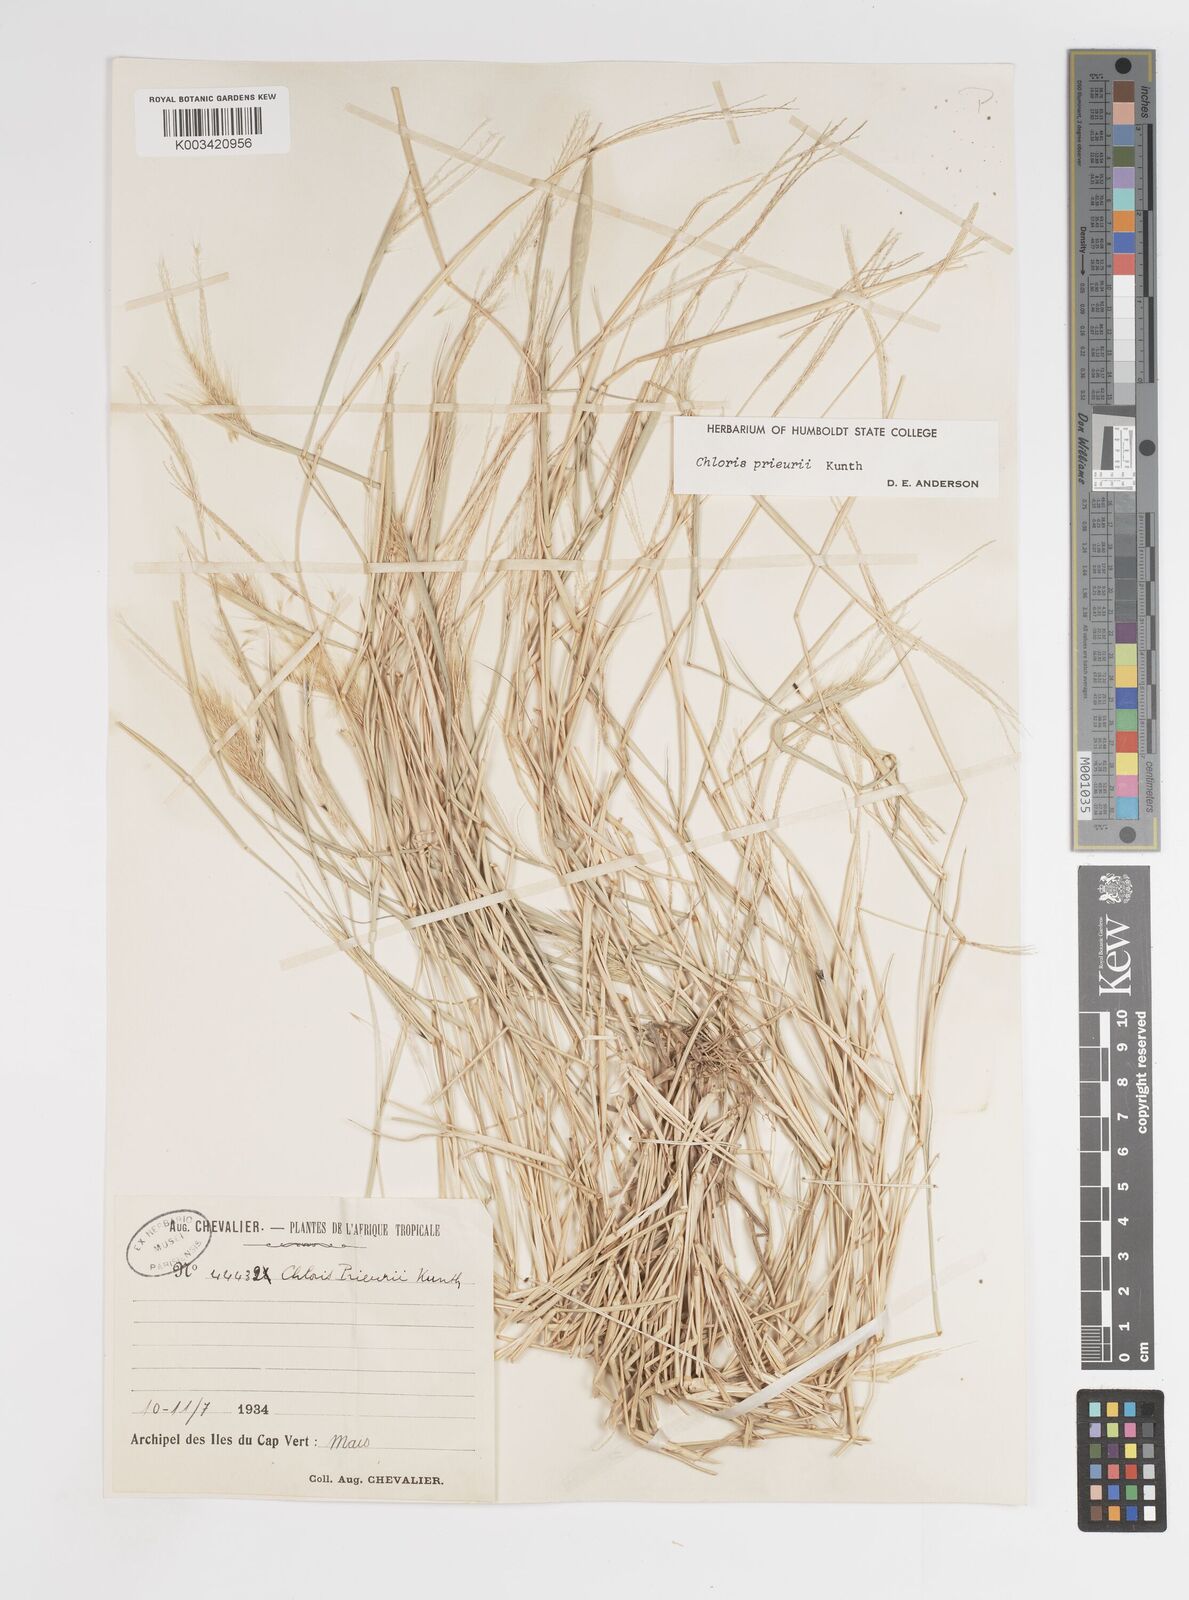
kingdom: Plantae
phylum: Tracheophyta
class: Liliopsida
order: Poales
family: Poaceae
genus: Enteropogon
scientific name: Enteropogon prieurii
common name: Prieur's umbrellagrass
